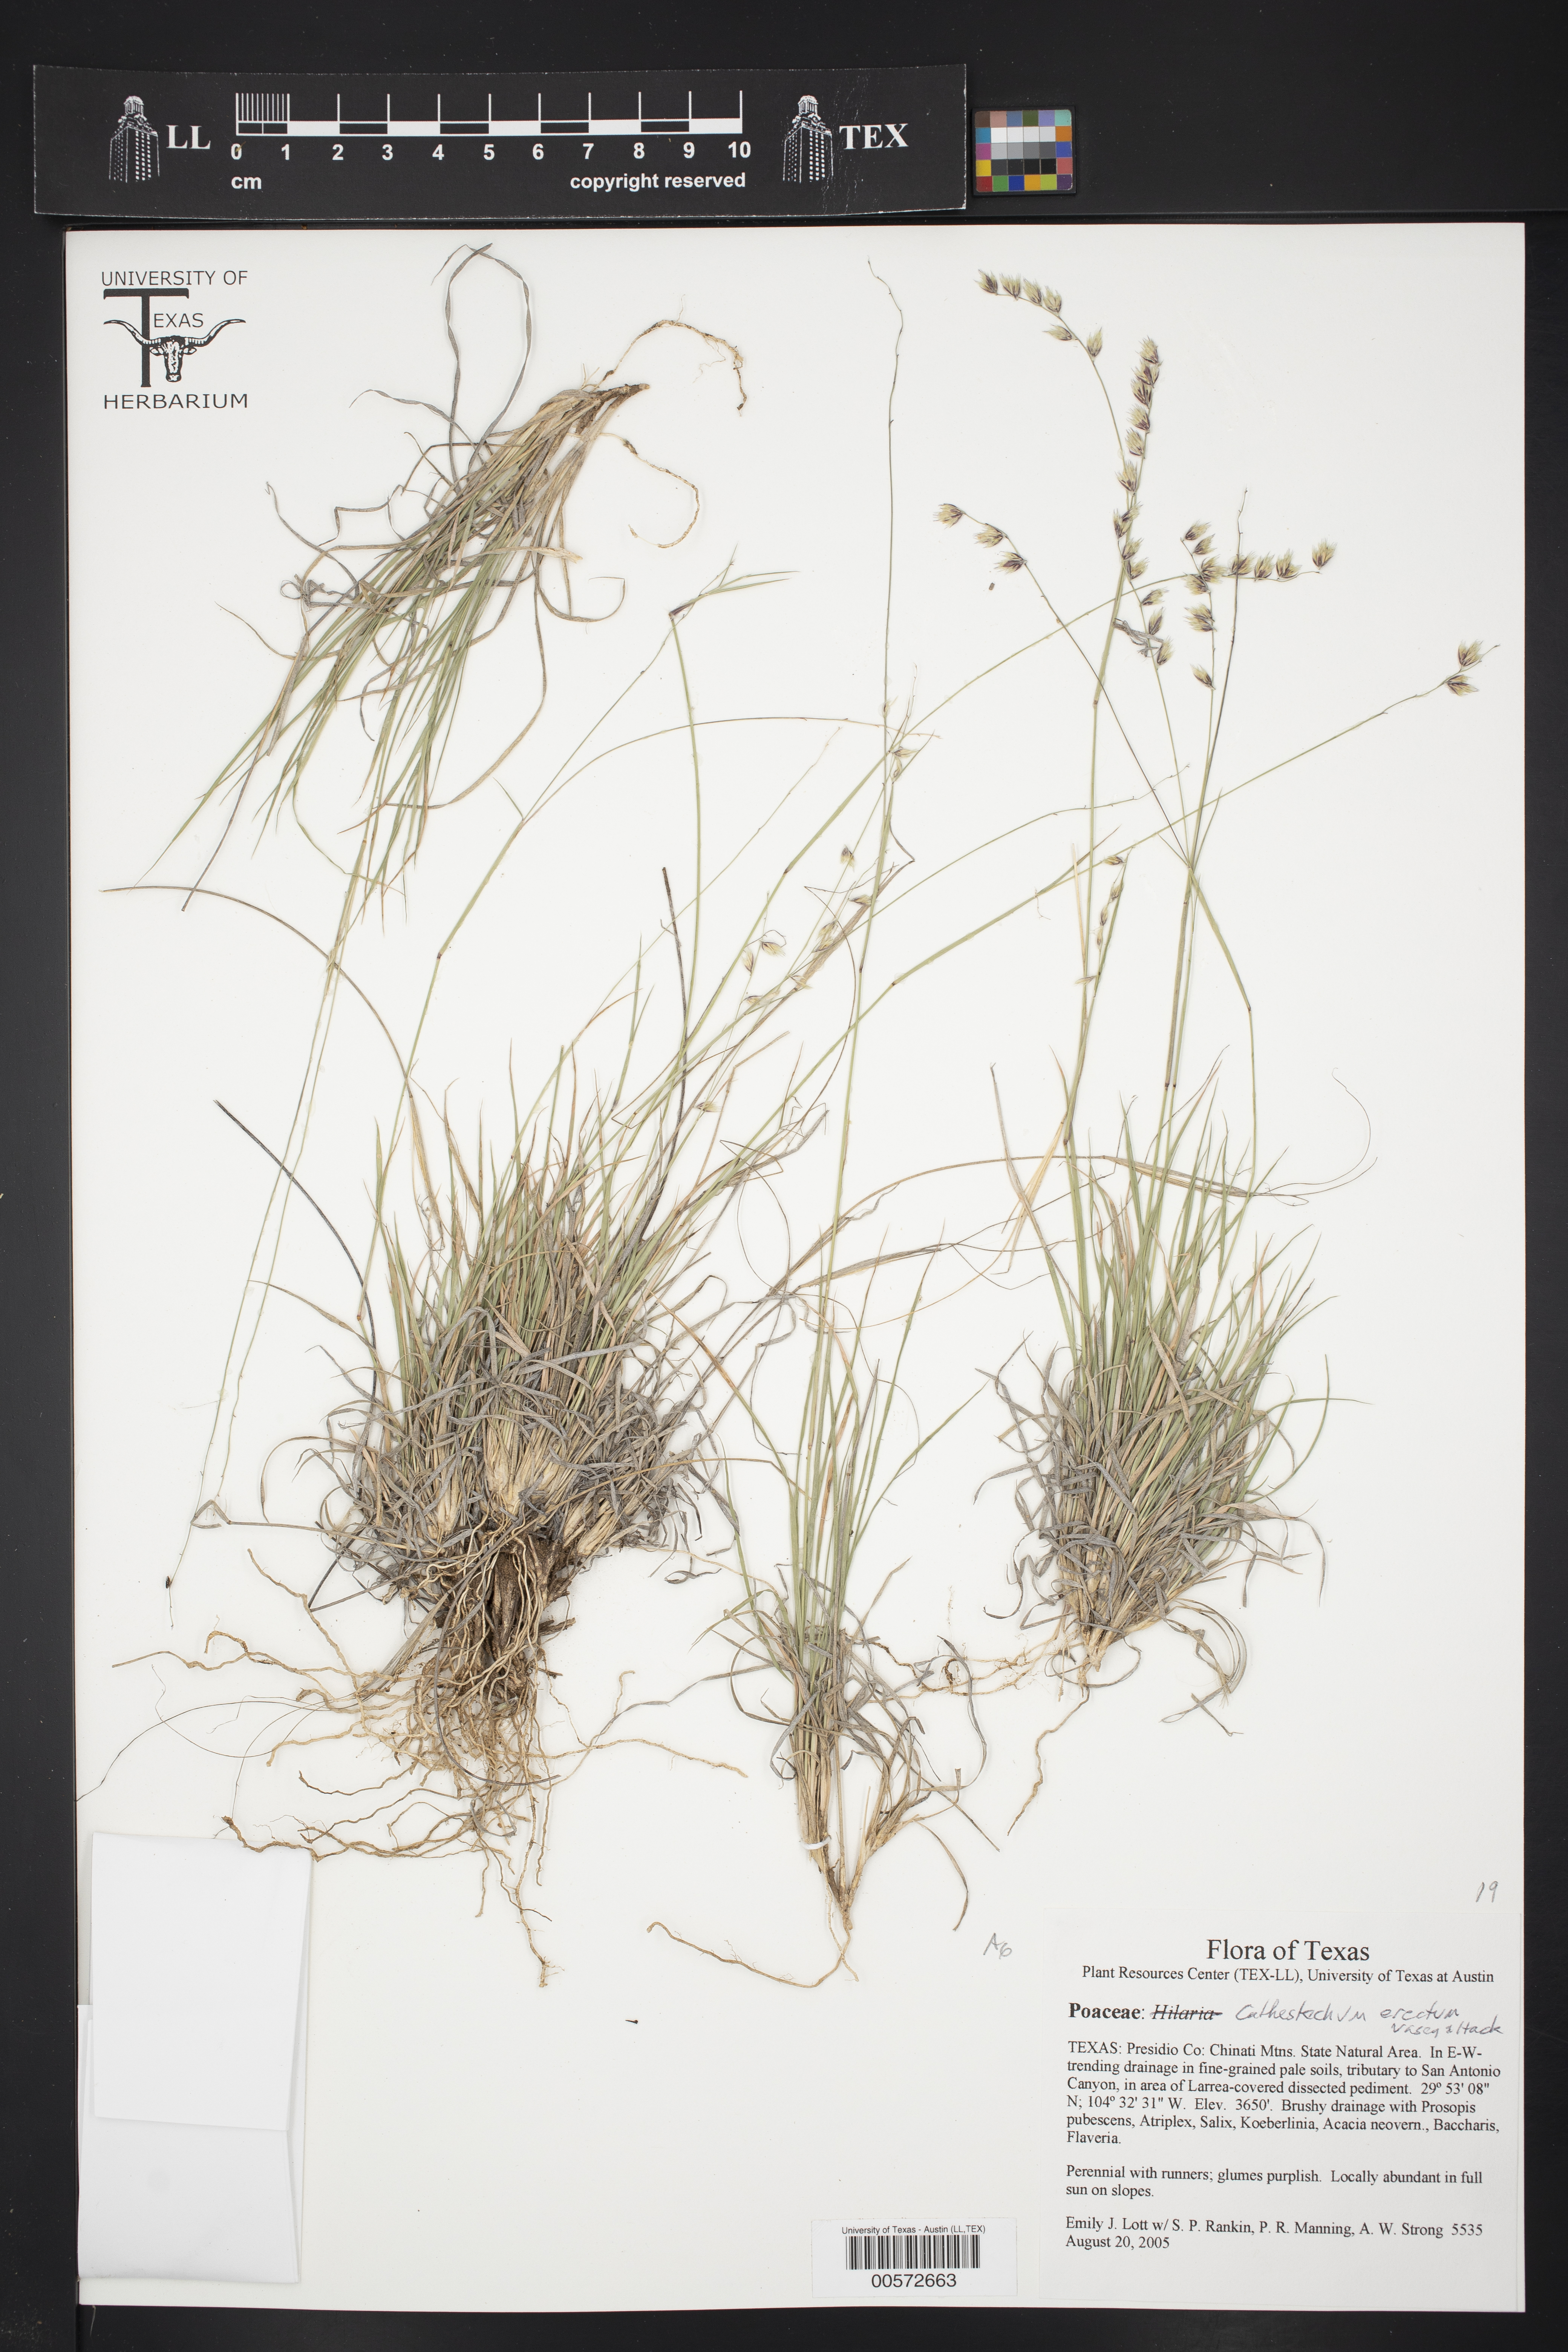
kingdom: Plantae
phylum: Tracheophyta
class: Liliopsida
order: Poales
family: Poaceae
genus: Bouteloua
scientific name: Bouteloua erecta
